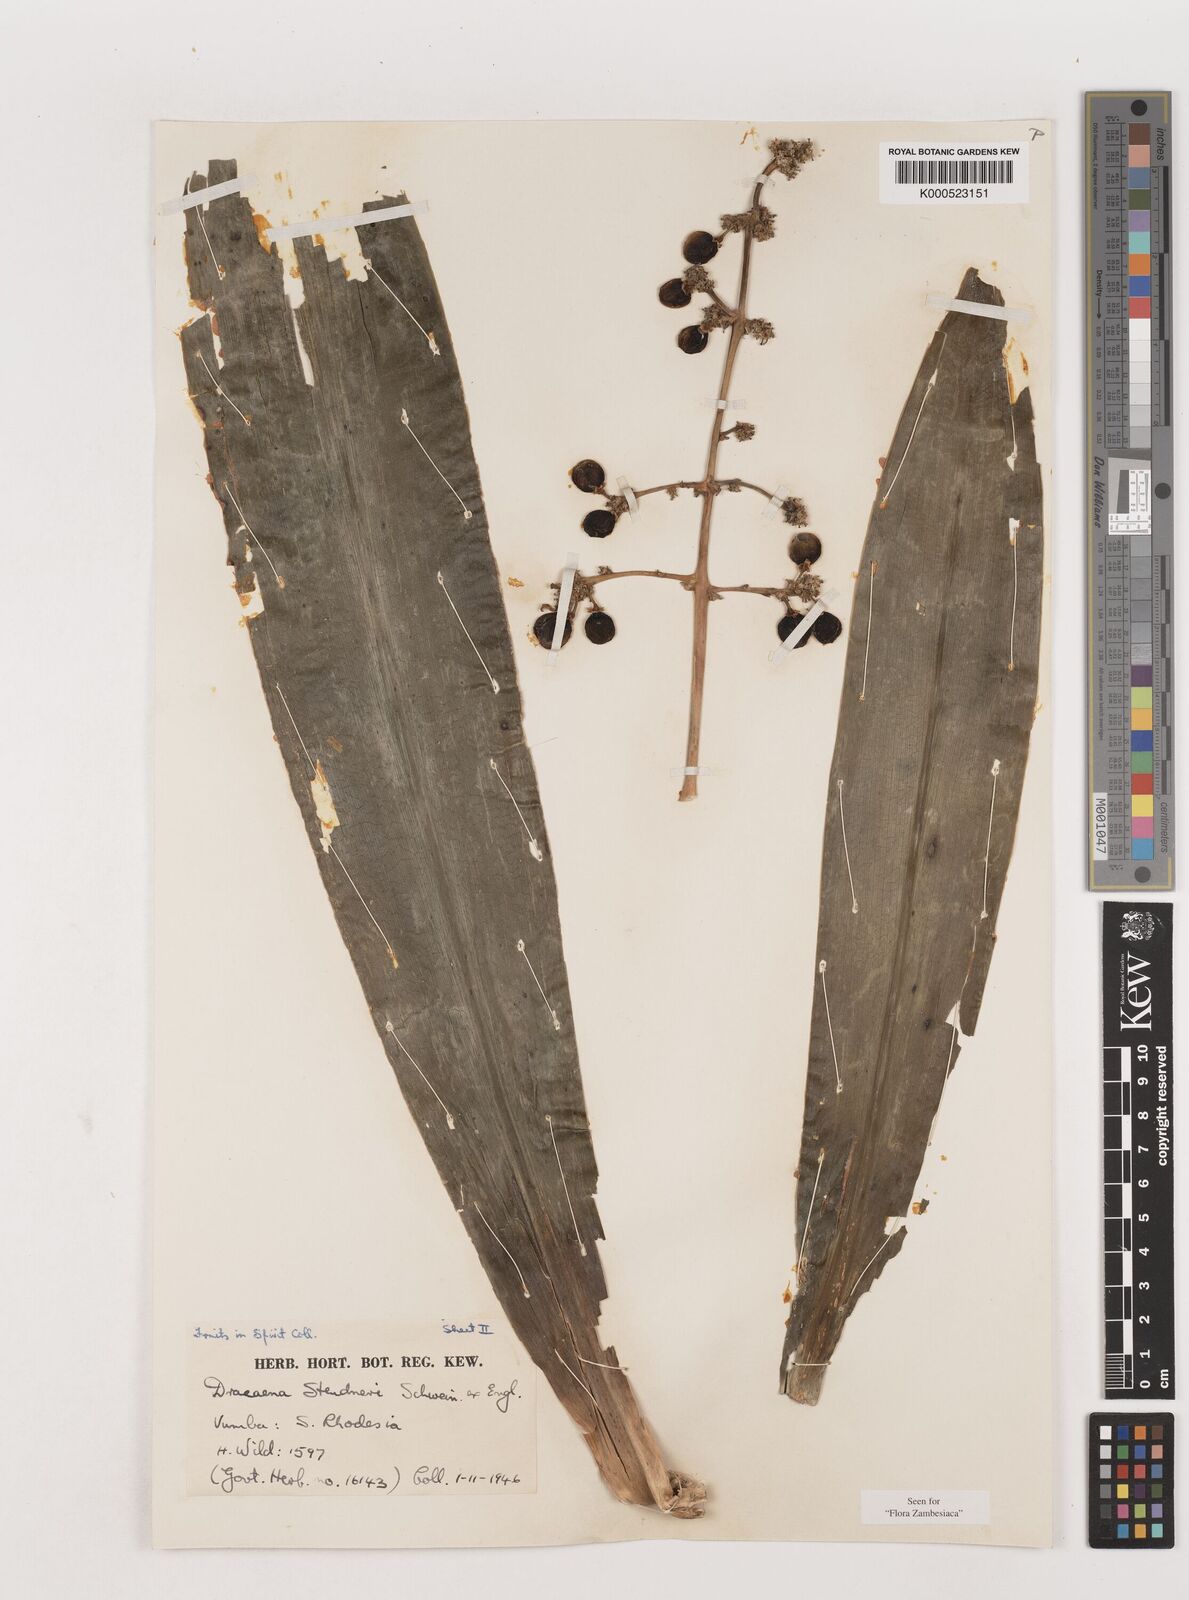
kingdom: Plantae
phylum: Tracheophyta
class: Liliopsida
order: Asparagales
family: Asparagaceae
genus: Dracaena
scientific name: Dracaena steudneri
